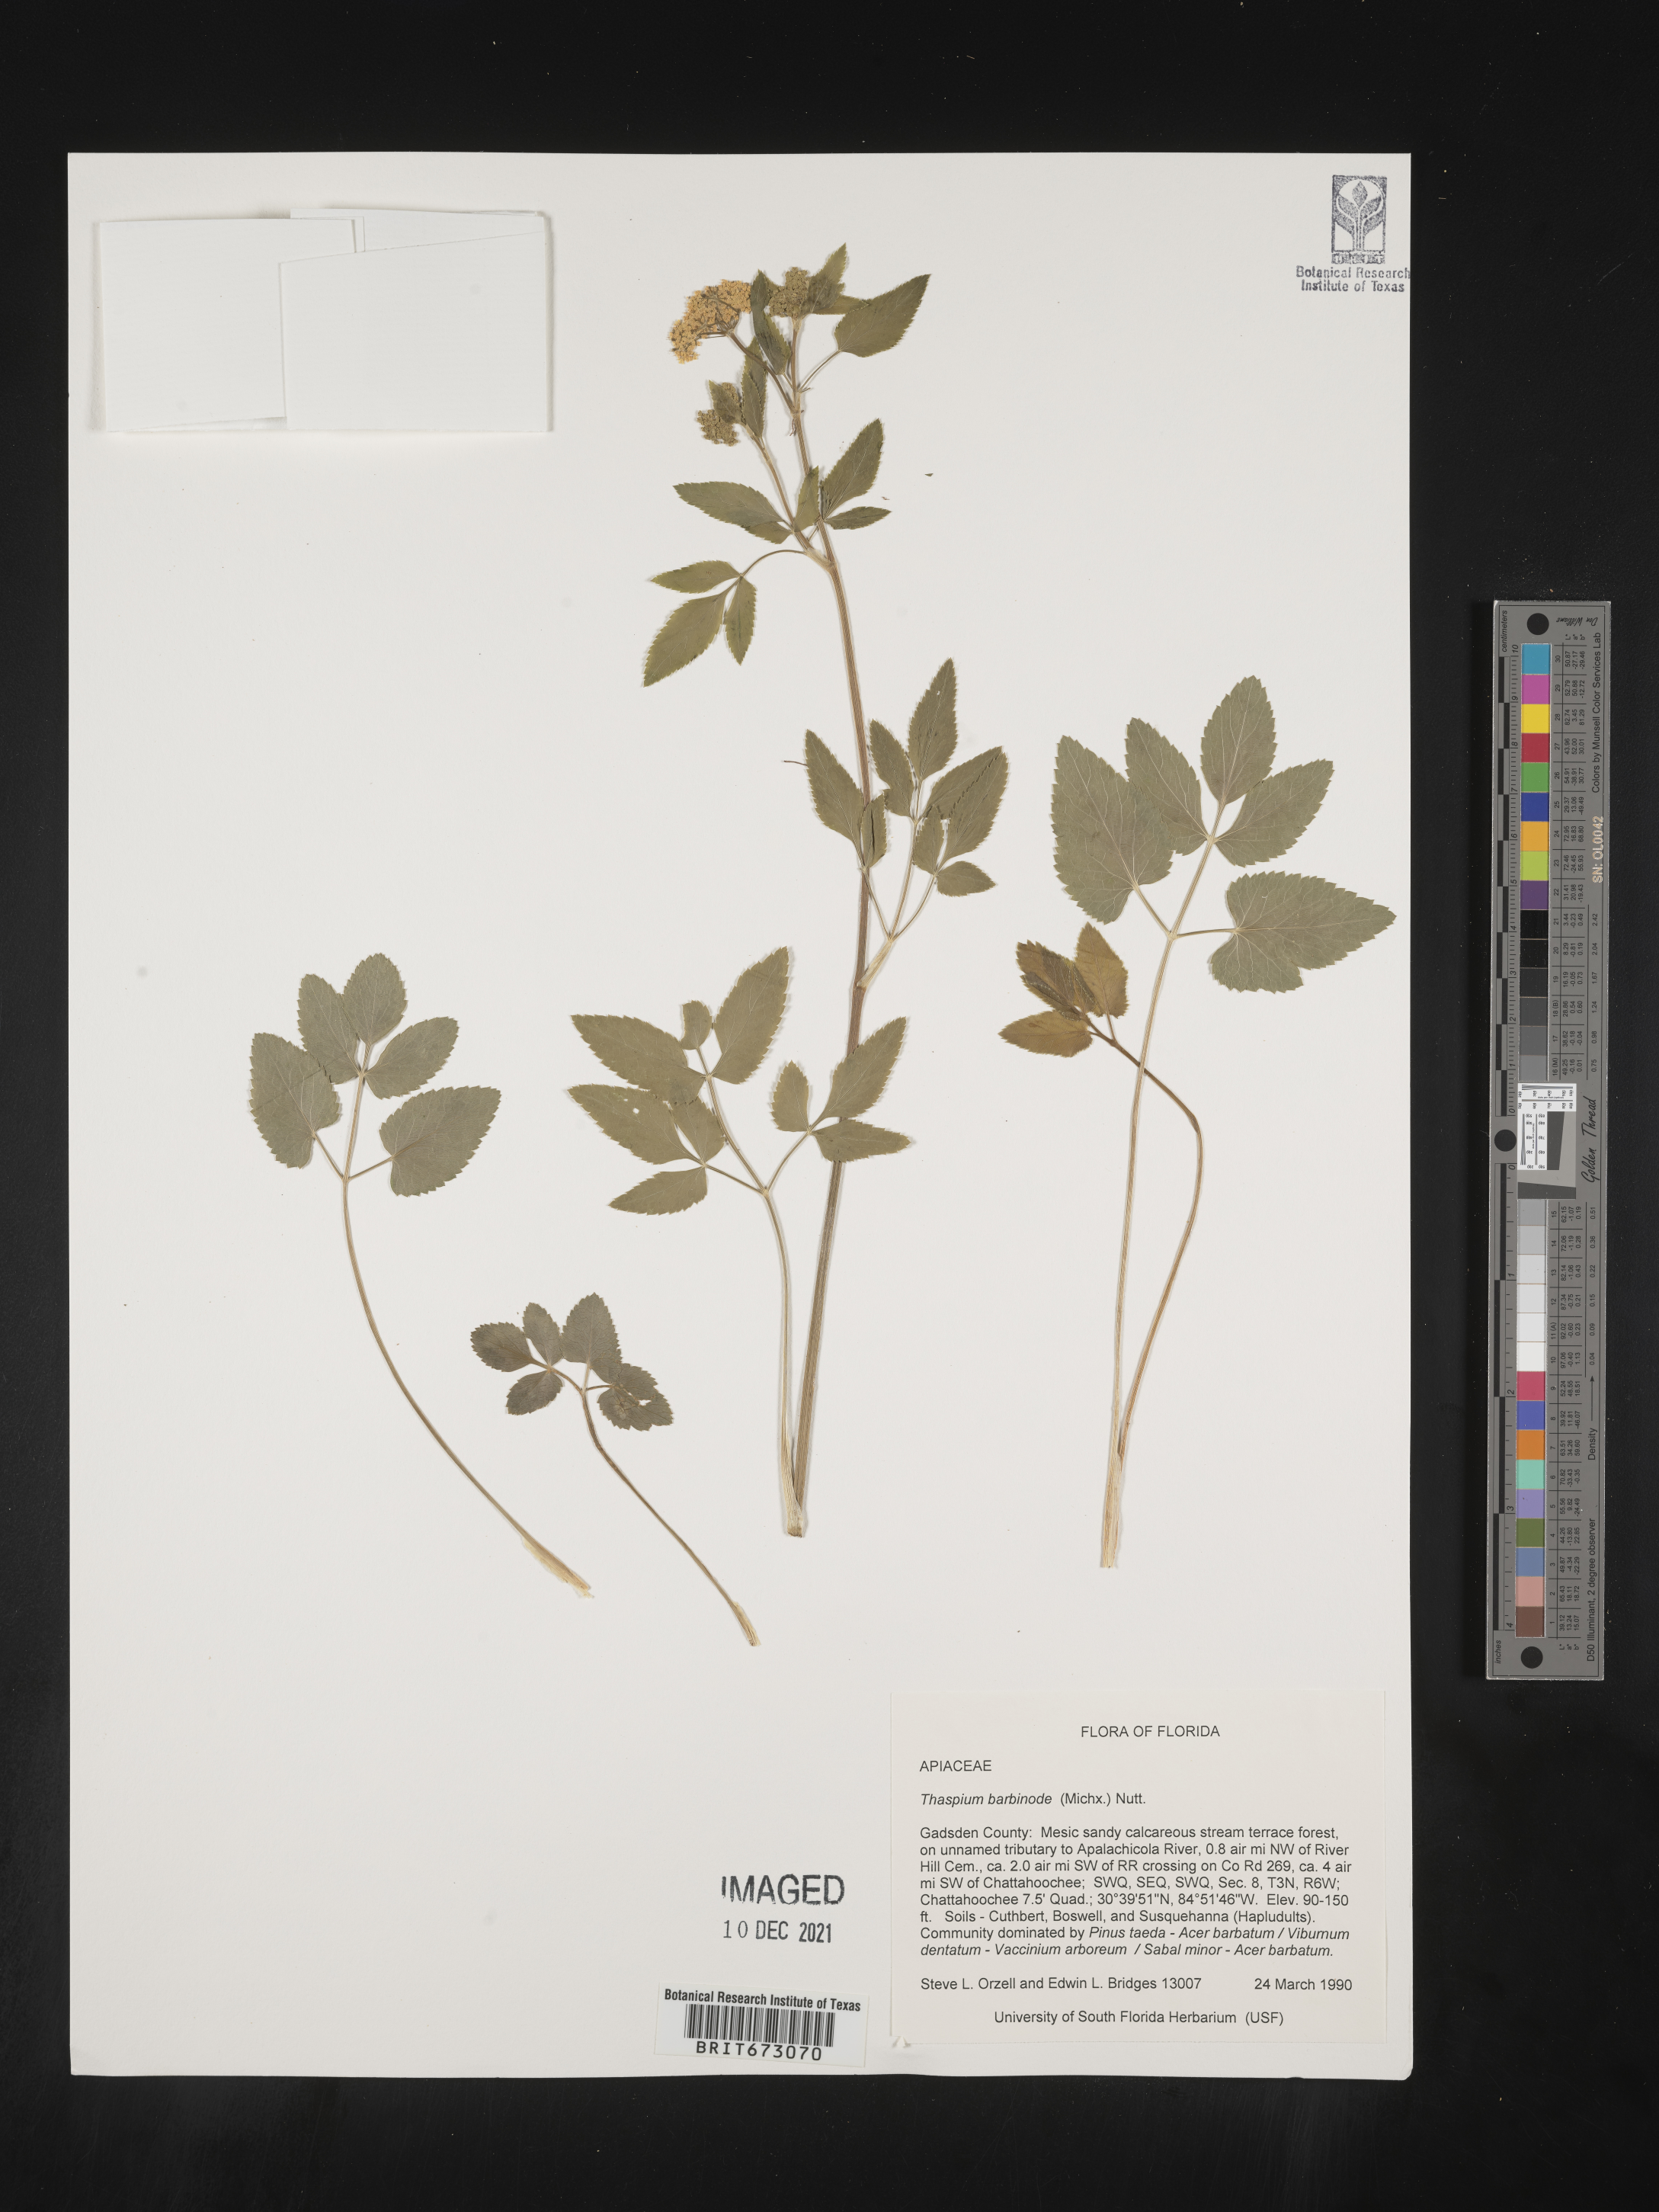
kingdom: Plantae
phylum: Tracheophyta
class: Magnoliopsida
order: Apiales
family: Apiaceae
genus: Thaspium
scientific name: Thaspium barbinode
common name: Bearded meadow-parsnip
